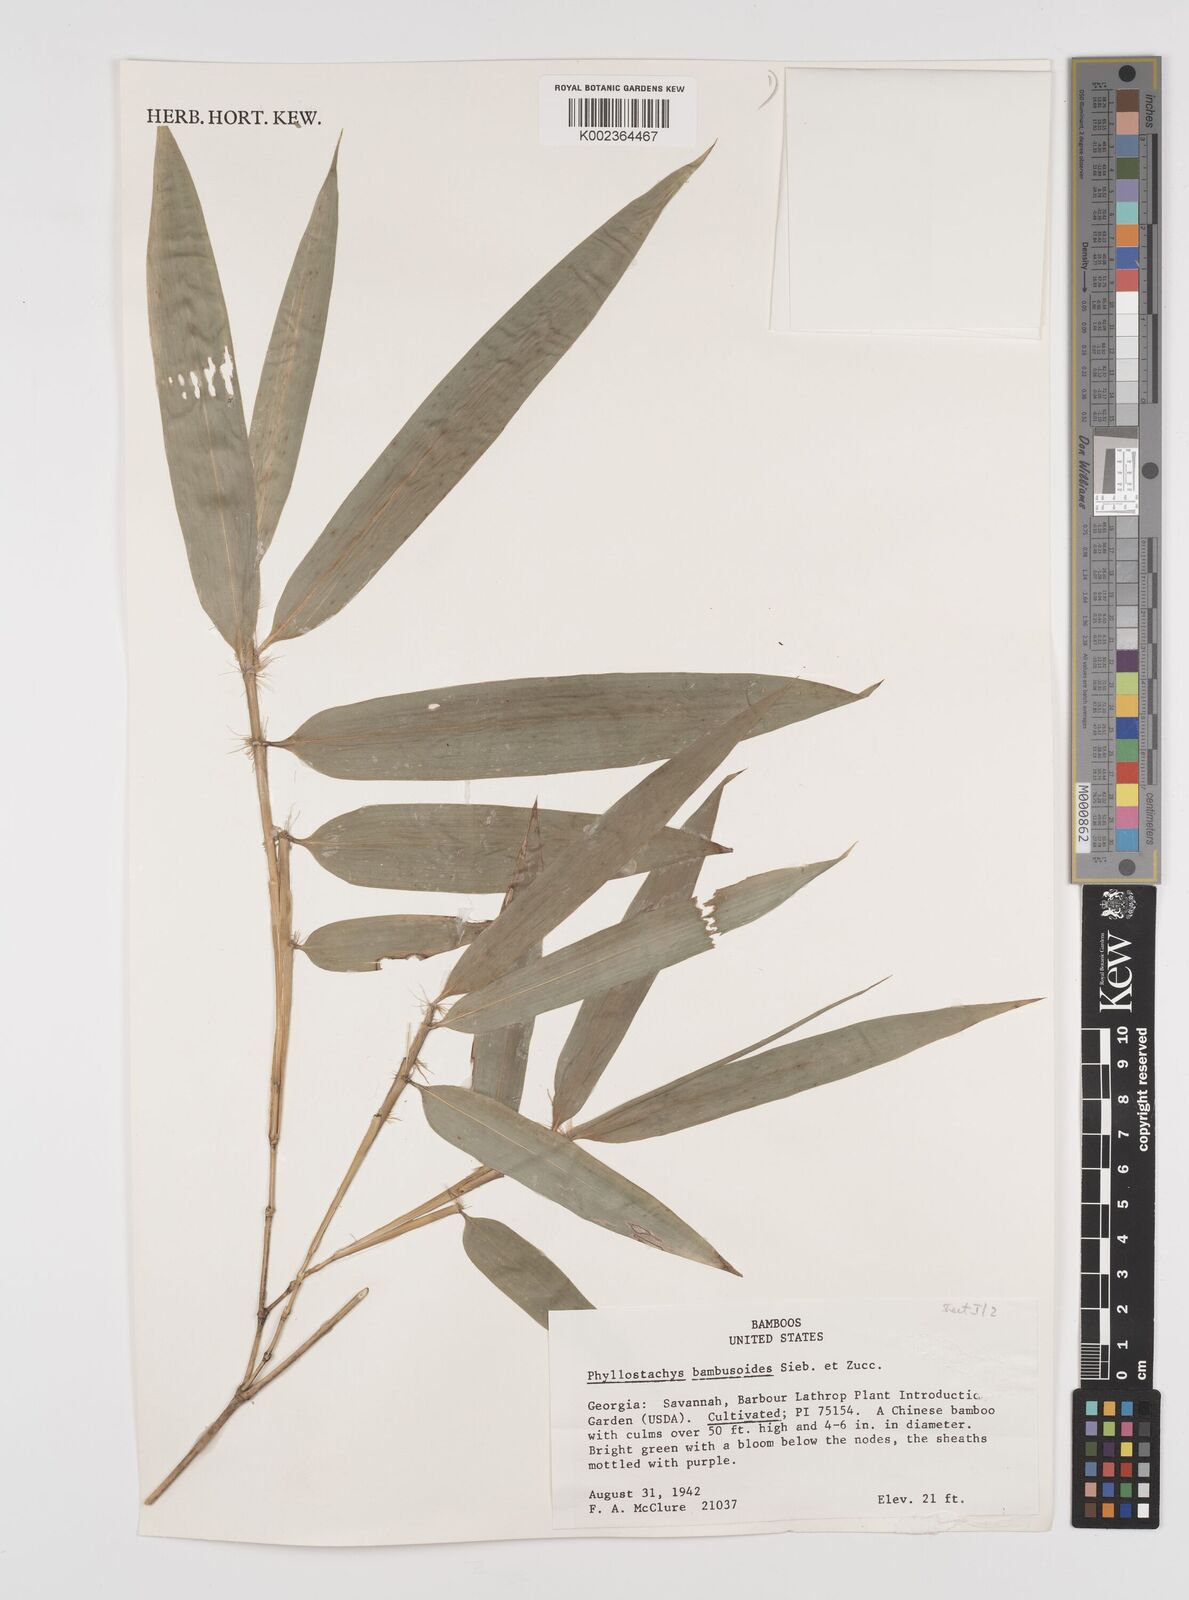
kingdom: Plantae
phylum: Tracheophyta
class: Liliopsida
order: Poales
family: Poaceae
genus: Phyllostachys
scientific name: Phyllostachys reticulata
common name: Bamboo
